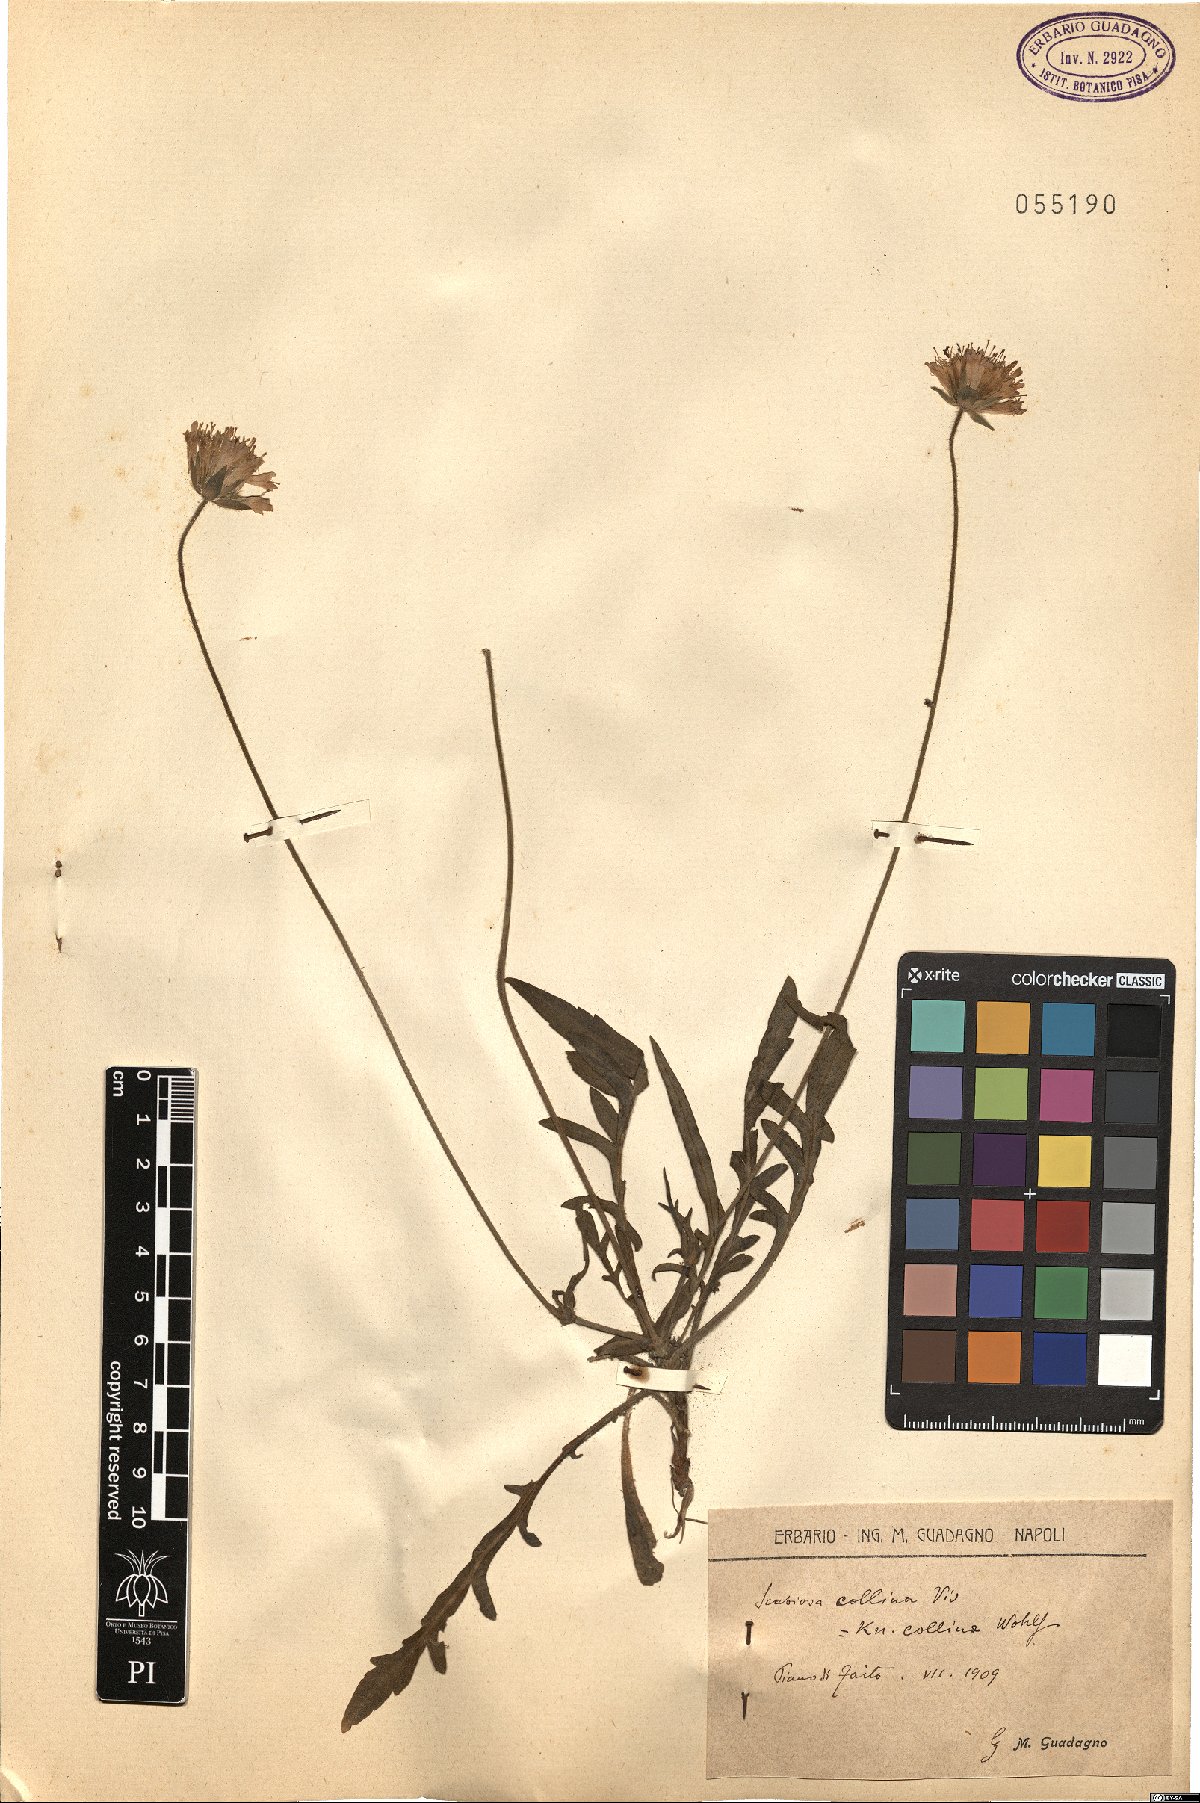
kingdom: Plantae
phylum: Tracheophyta
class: Magnoliopsida
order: Dipsacales
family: Caprifoliaceae
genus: Knautia
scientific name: Knautia collina
